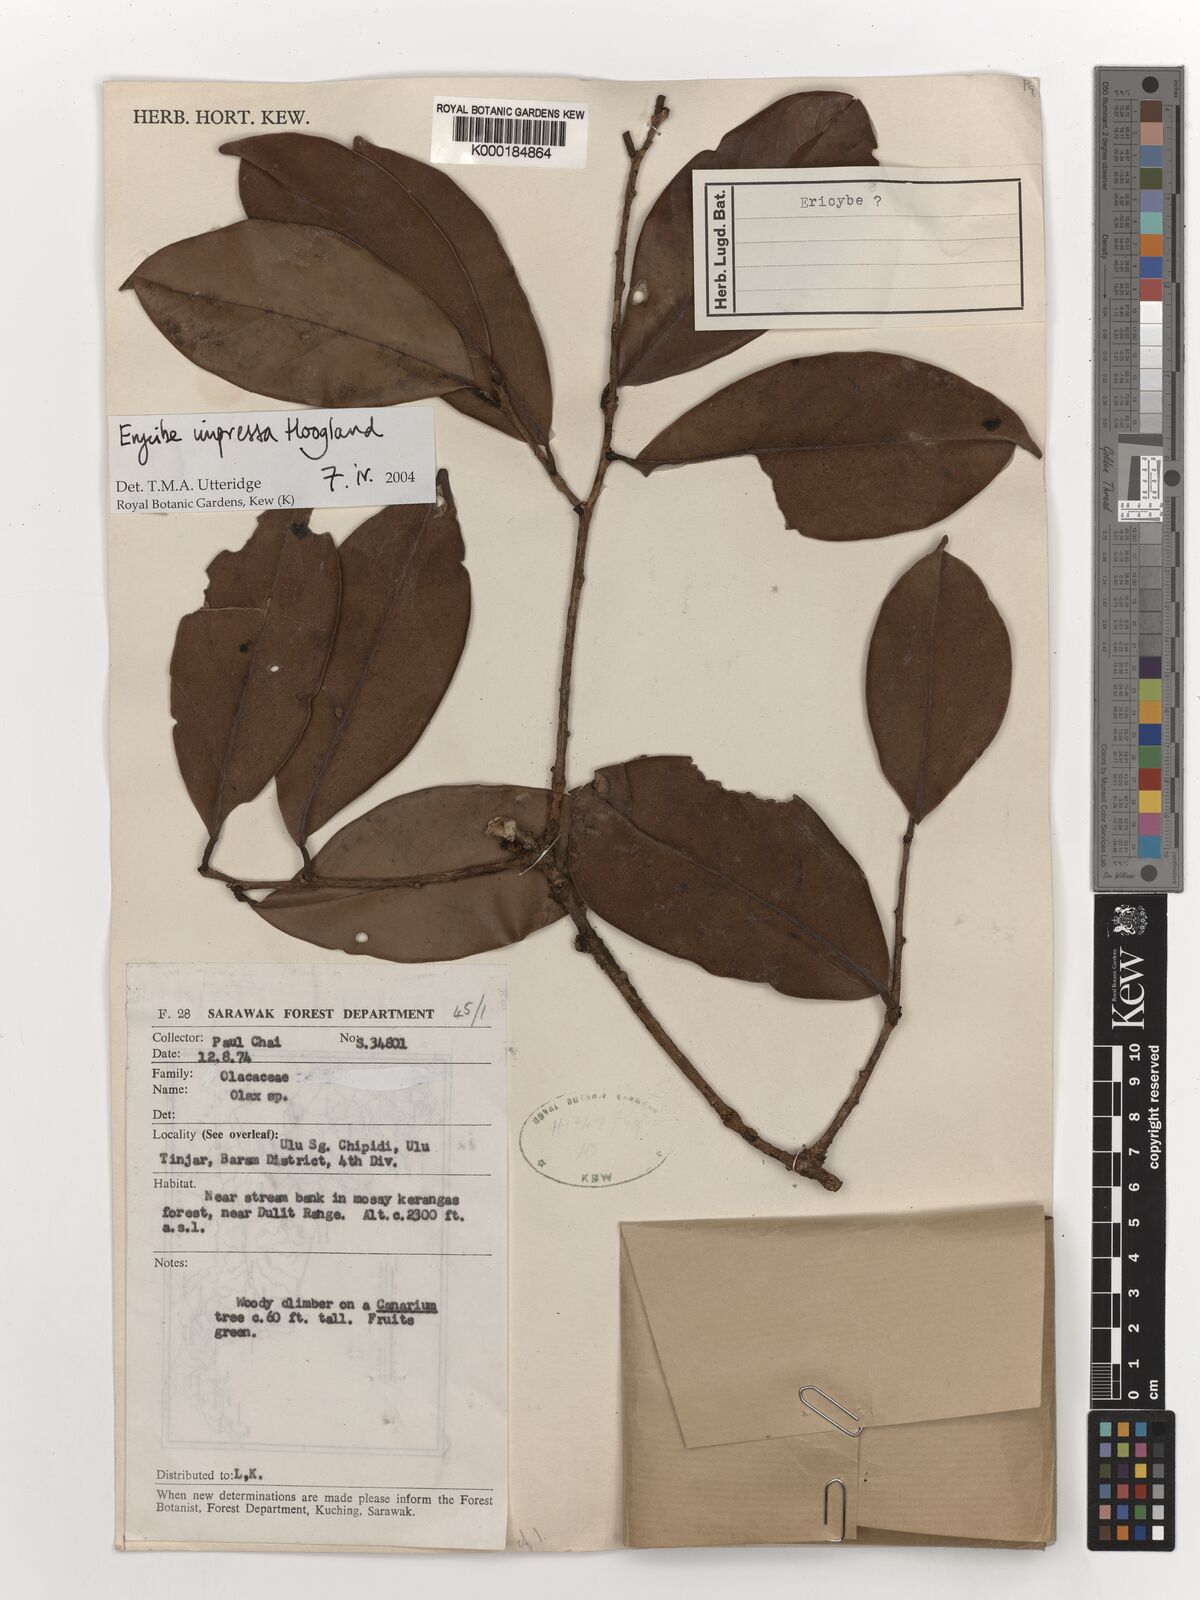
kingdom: Plantae
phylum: Tracheophyta
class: Magnoliopsida
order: Solanales
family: Convolvulaceae
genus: Erycibe
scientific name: Erycibe impressa
